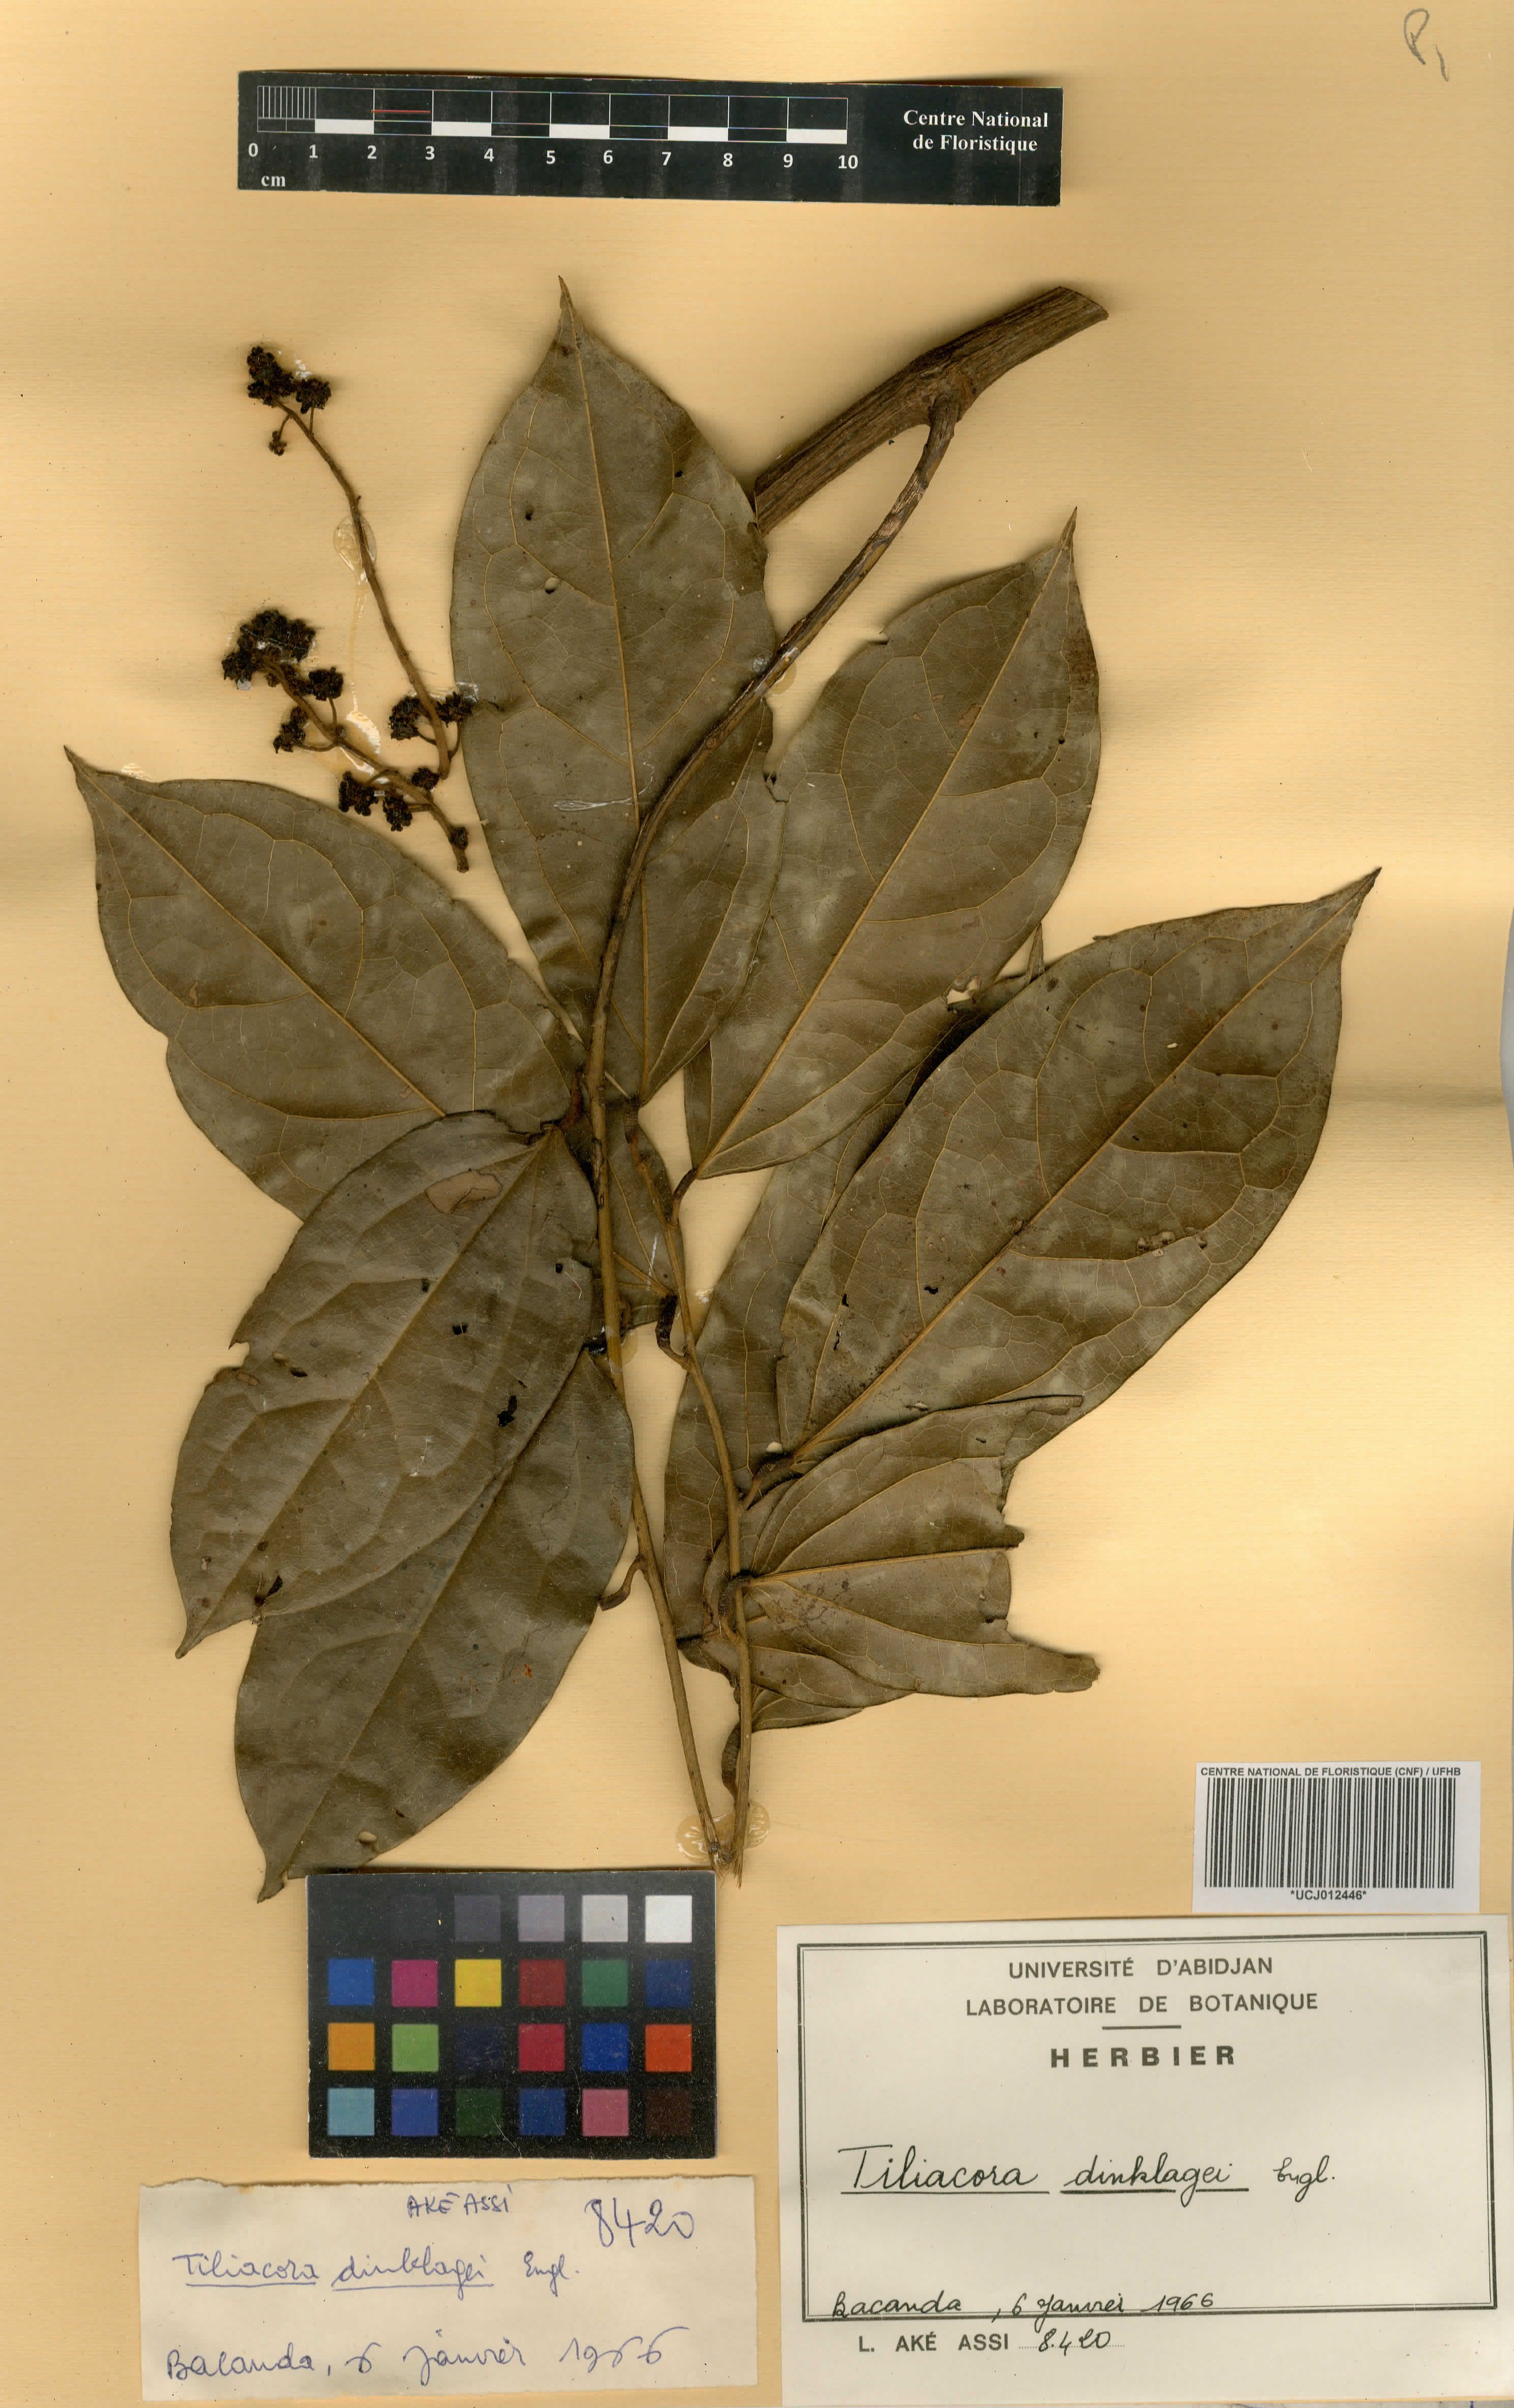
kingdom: Plantae
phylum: Tracheophyta
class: Magnoliopsida
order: Ranunculales
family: Menispermaceae
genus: Tiliacora
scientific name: Tiliacora dinklagei
